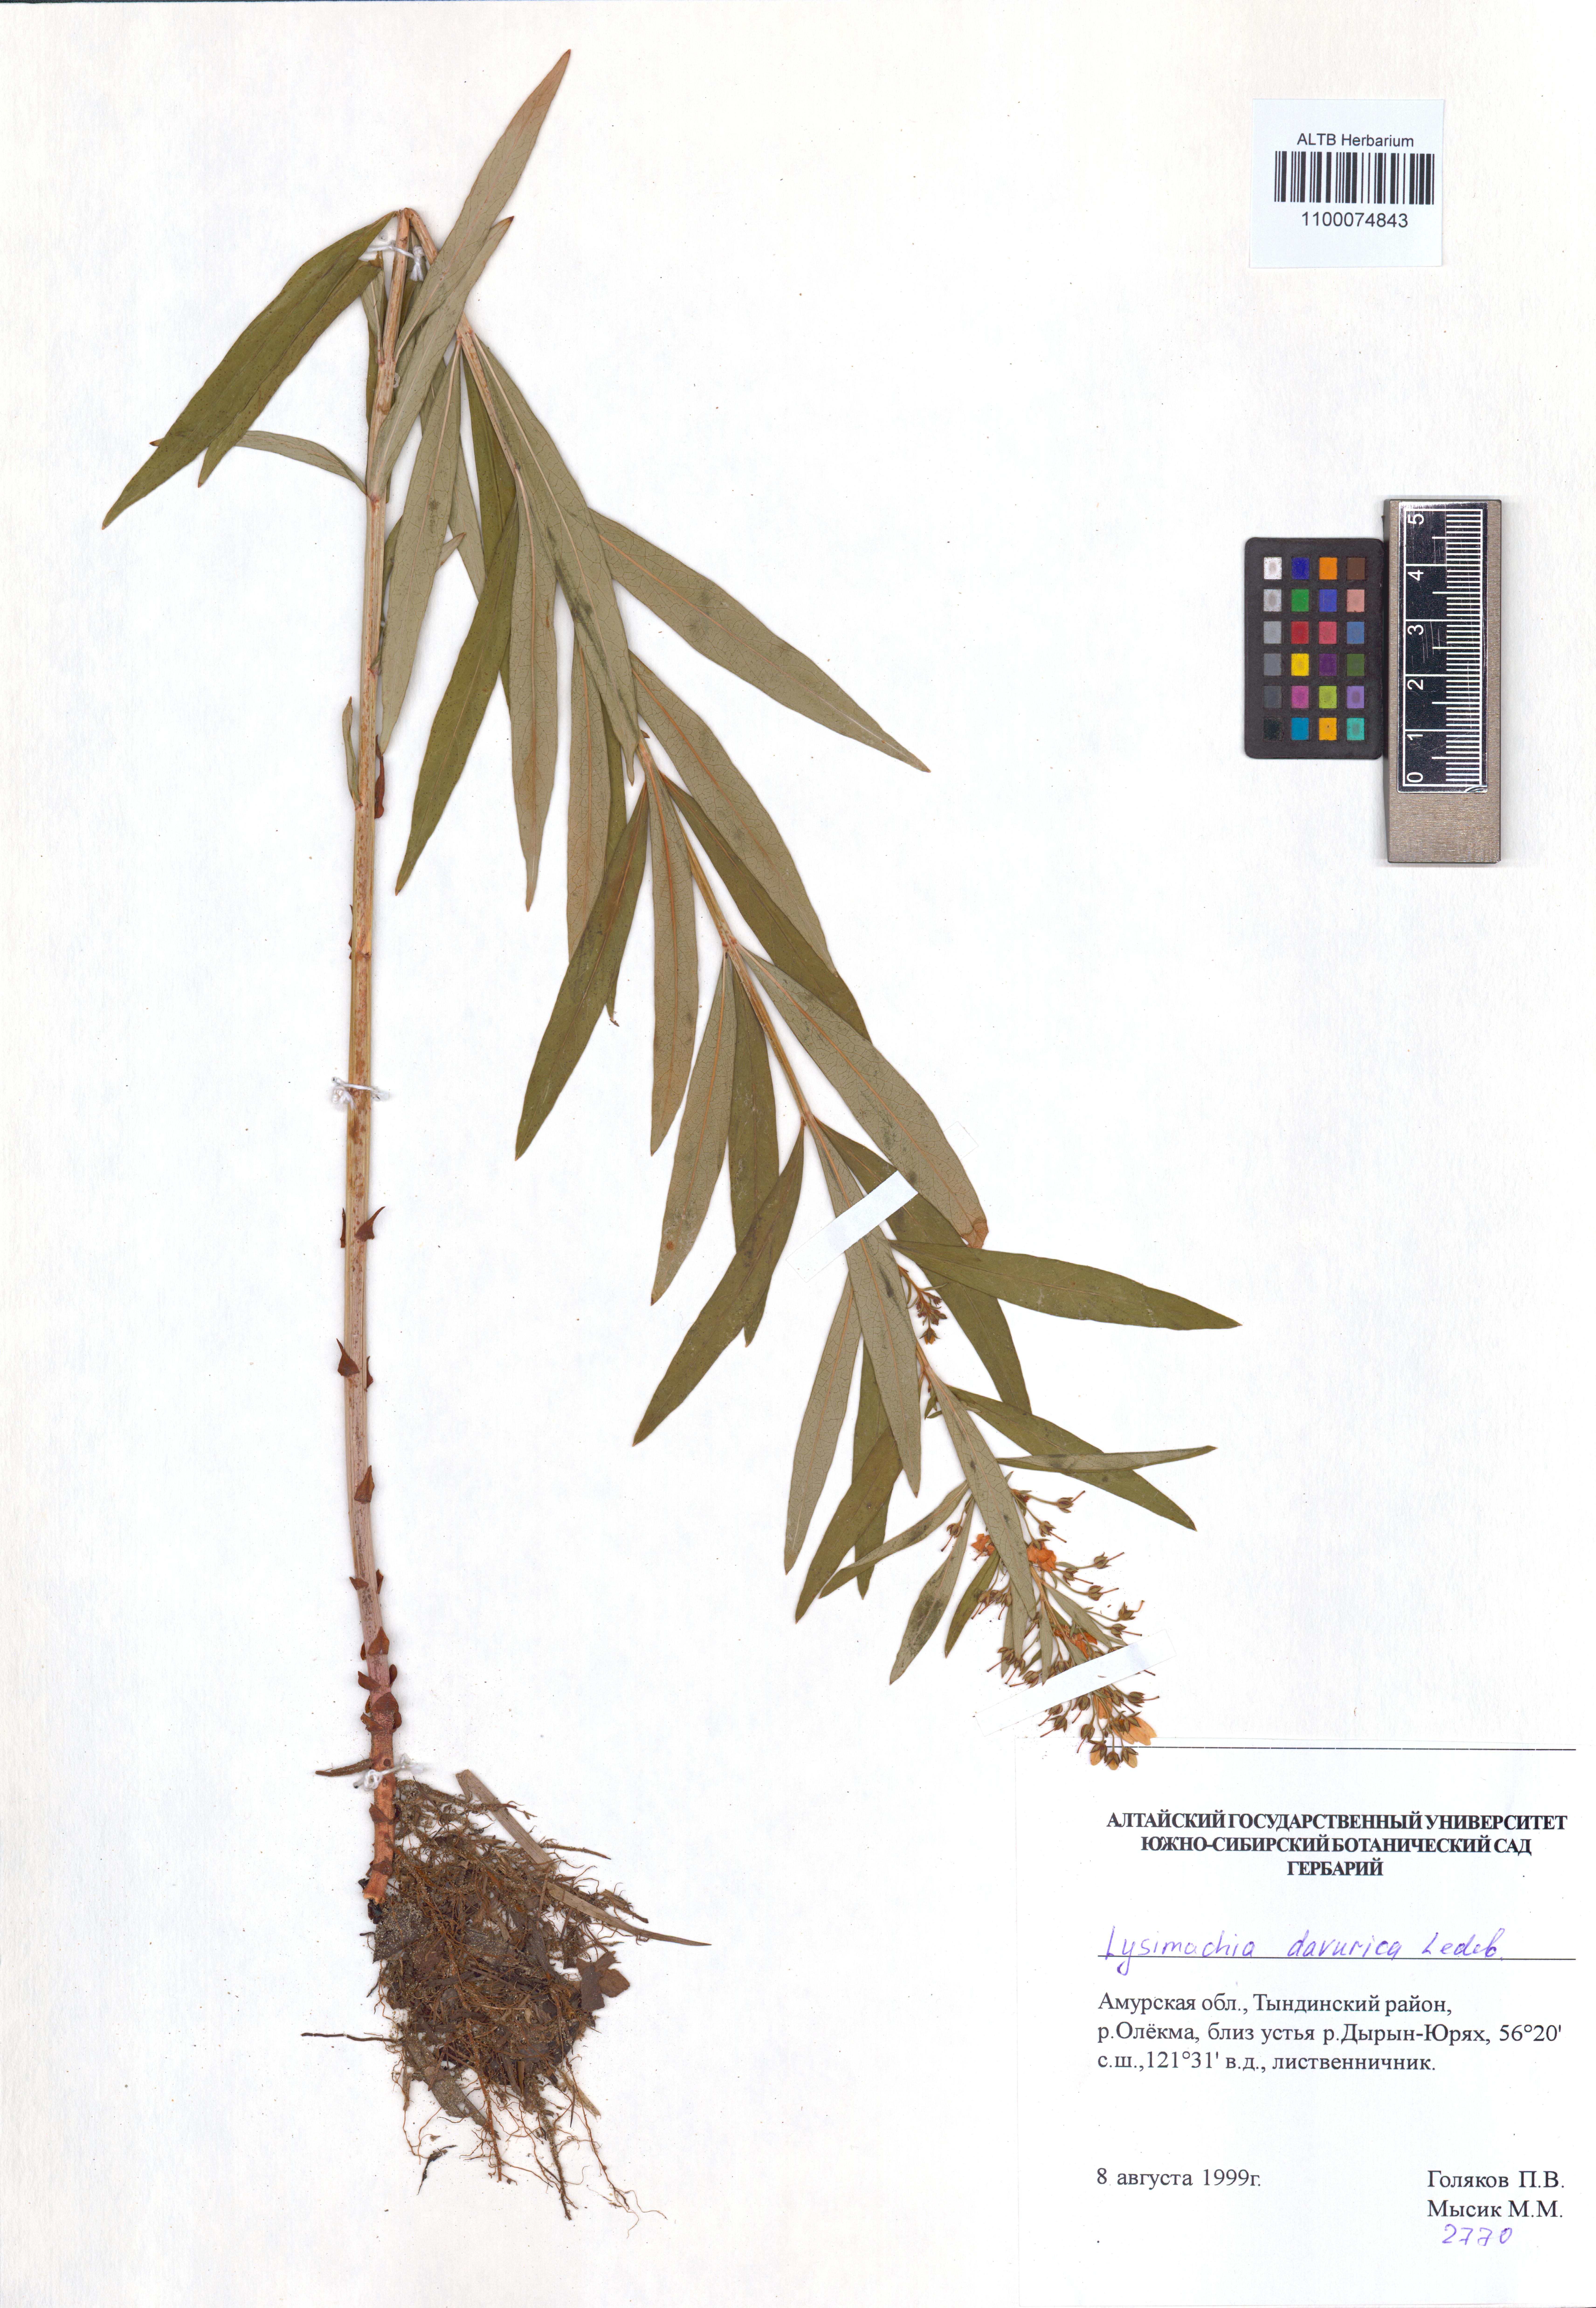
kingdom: Plantae
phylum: Tracheophyta
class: Magnoliopsida
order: Ericales
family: Primulaceae
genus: Lysimachia
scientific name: Lysimachia davurica
